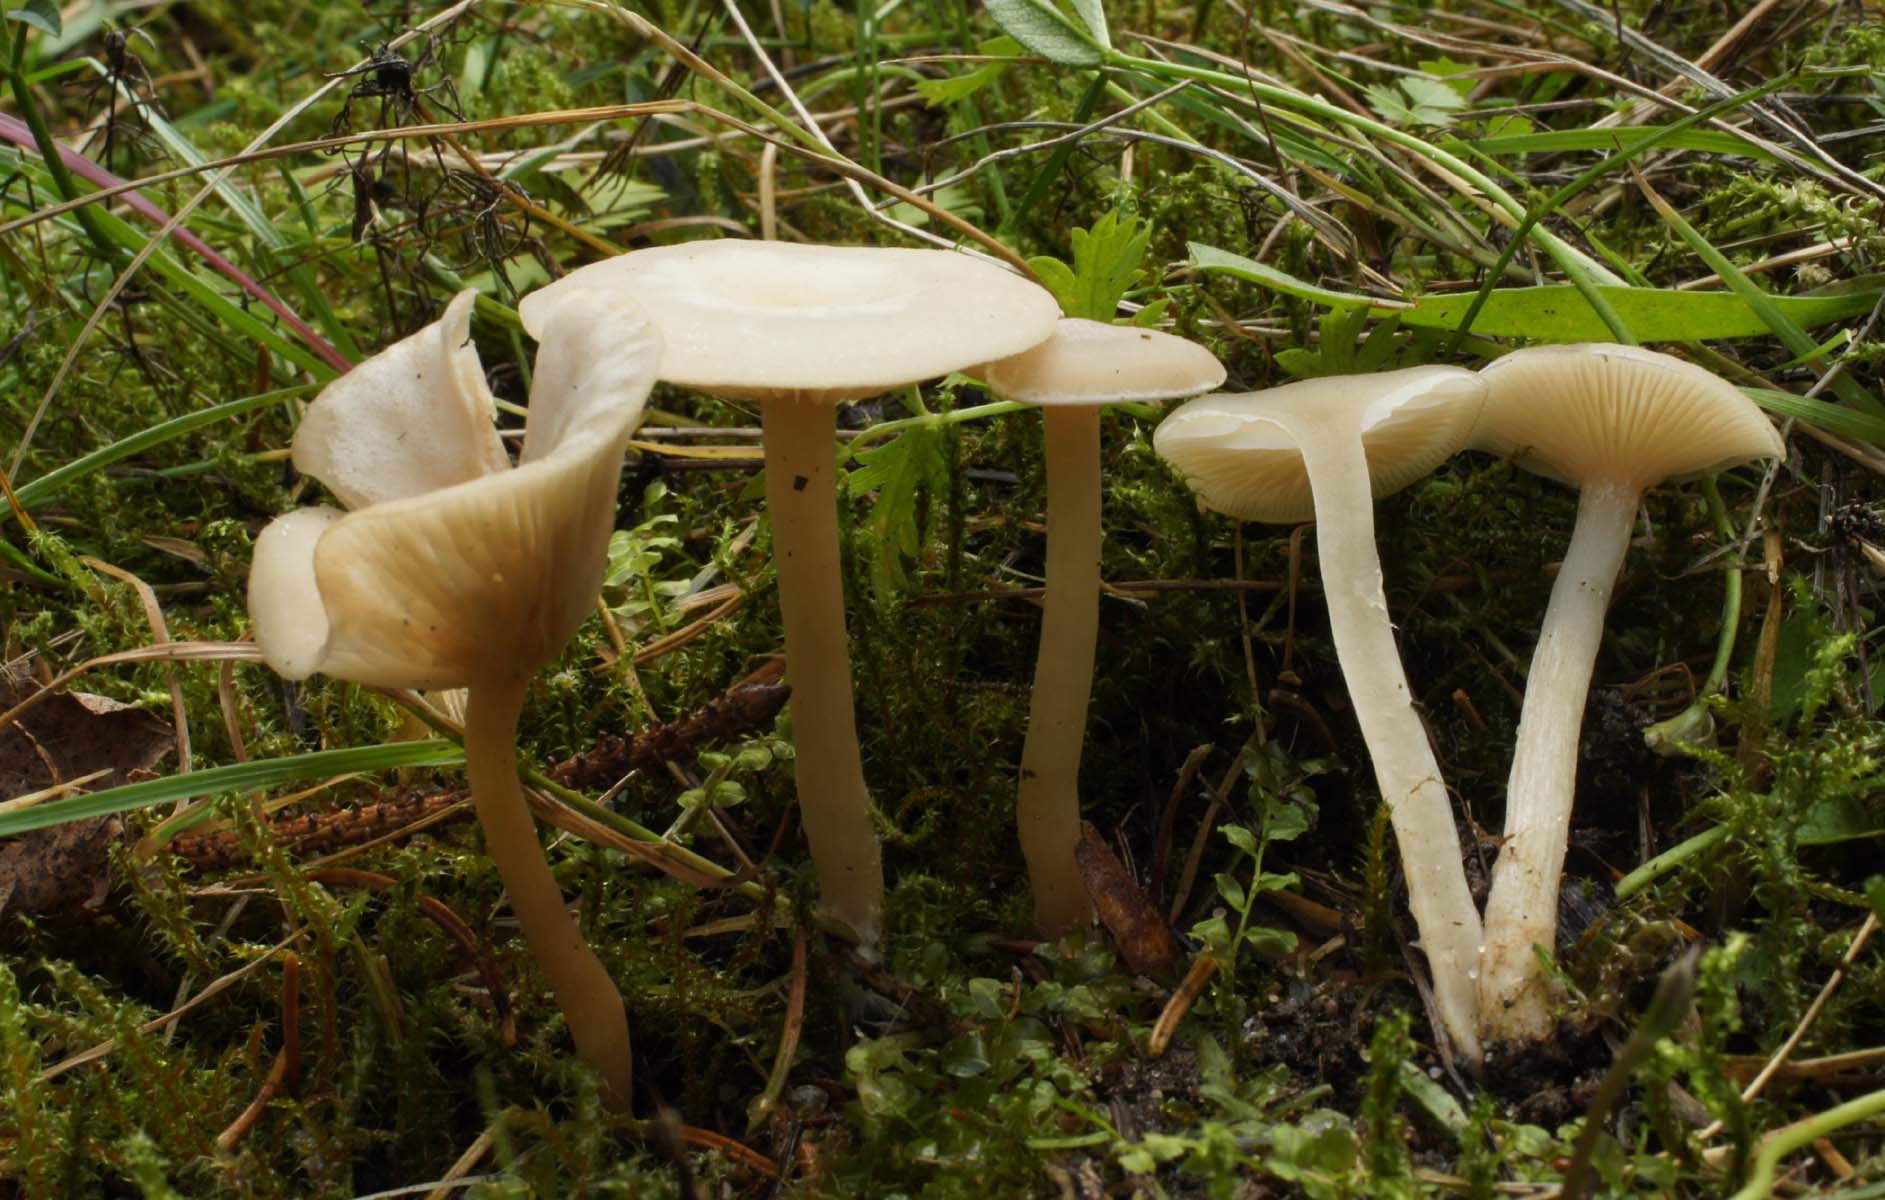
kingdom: Fungi
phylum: Basidiomycota
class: Agaricomycetes
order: Agaricales
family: Tricholomataceae
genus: Clitocybe
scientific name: Clitocybe fragrans
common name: vellugtende tragthat
